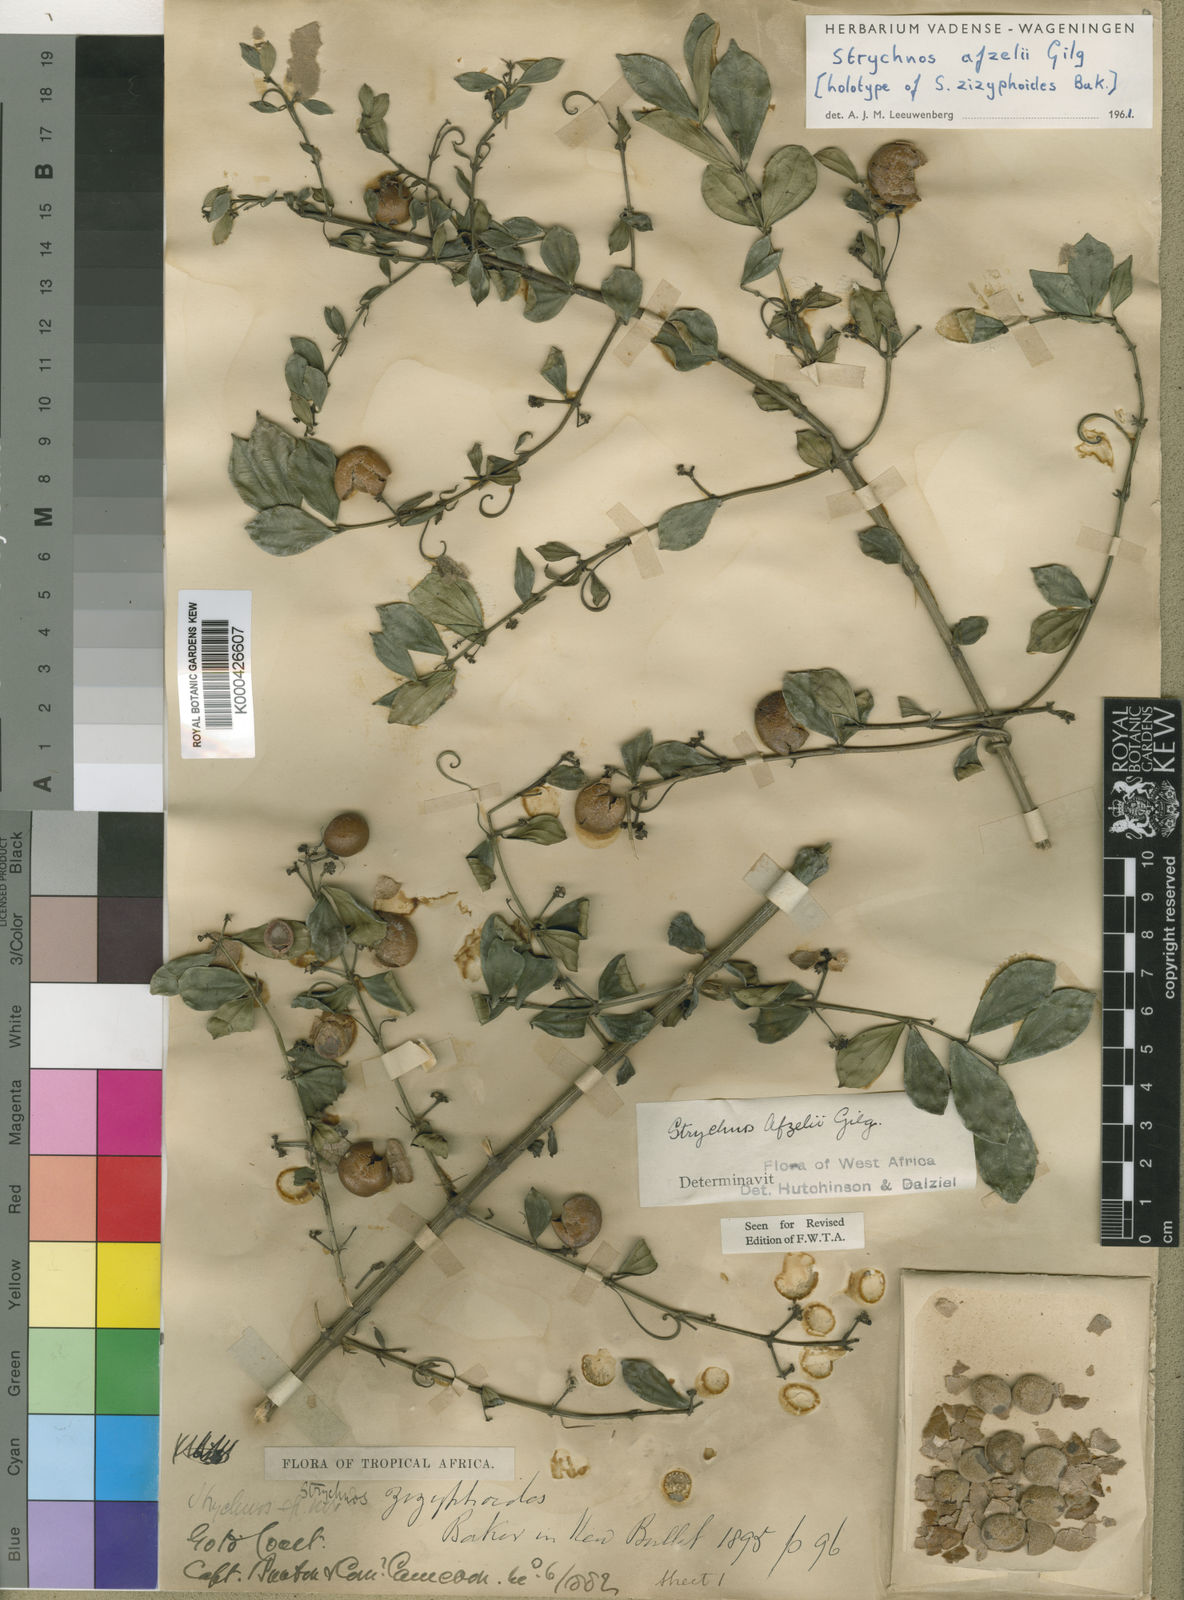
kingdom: Plantae
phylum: Tracheophyta
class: Magnoliopsida
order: Gentianales
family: Loganiaceae
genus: Strychnos
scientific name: Strychnos afzelii
